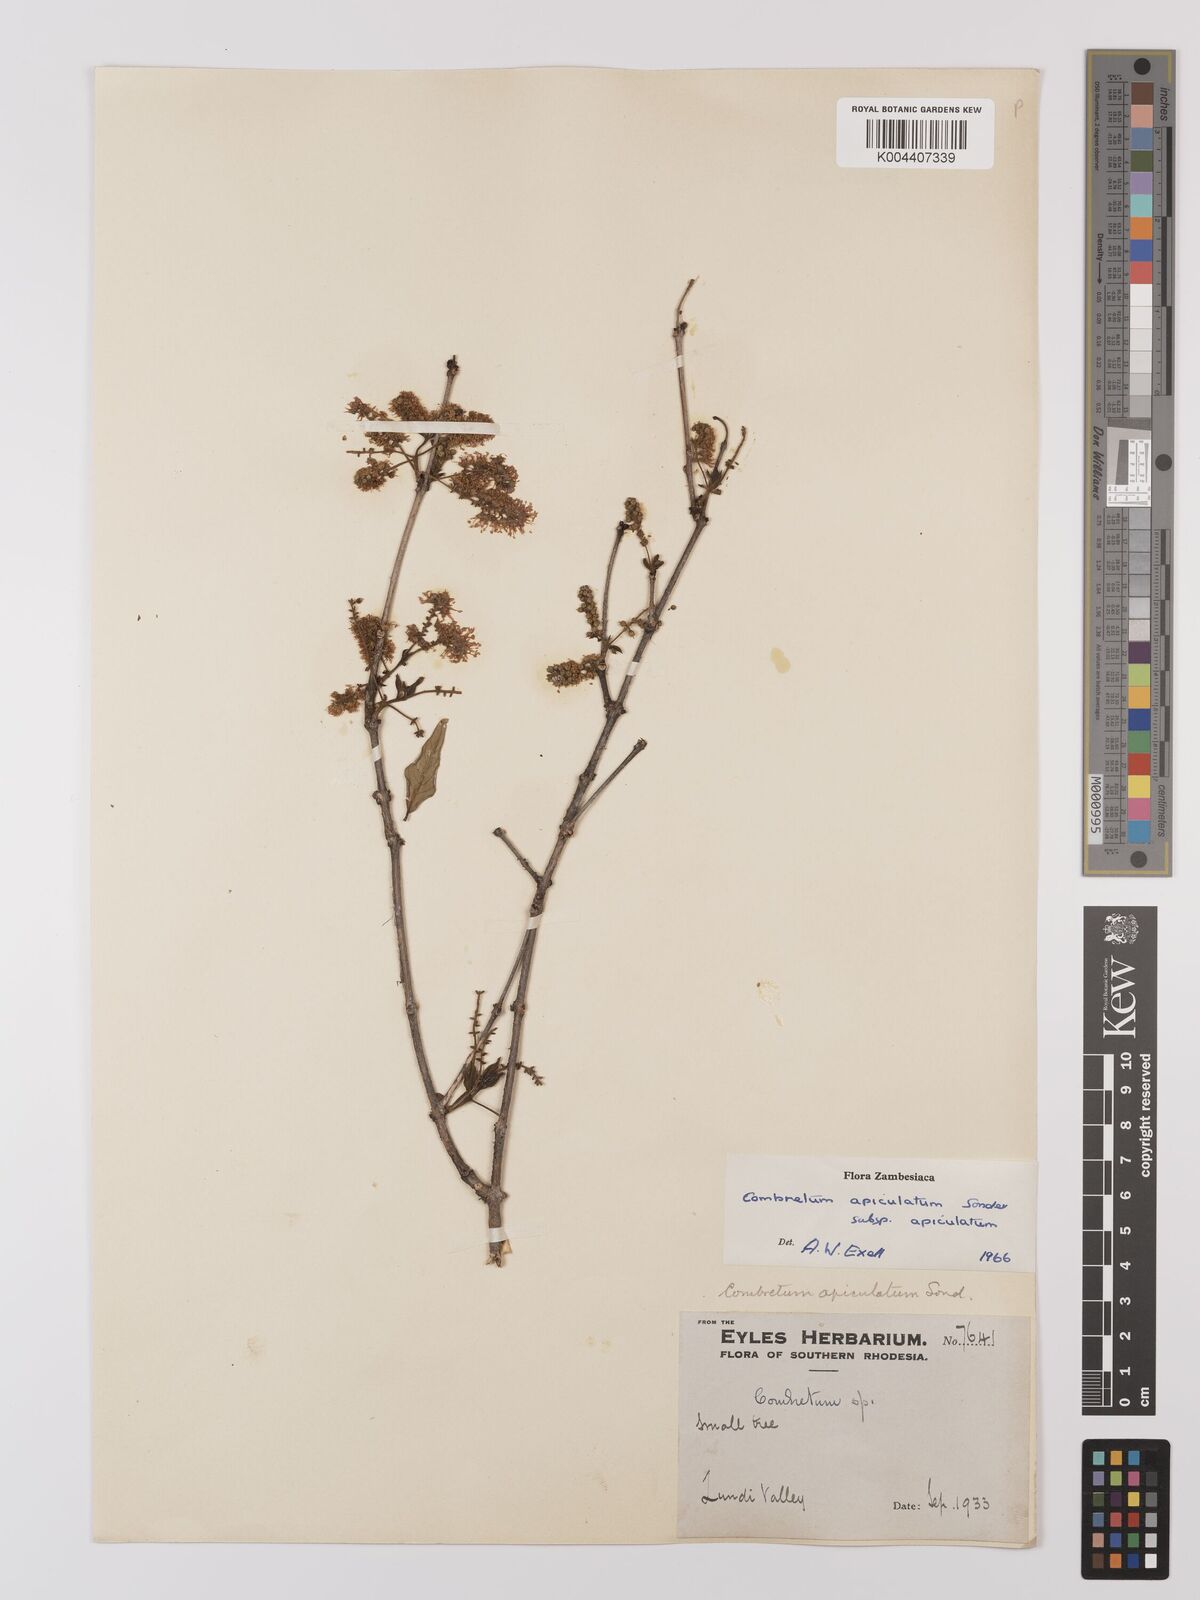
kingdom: Plantae
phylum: Tracheophyta
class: Magnoliopsida
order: Myrtales
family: Combretaceae
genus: Combretum
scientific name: Combretum apiculatum
